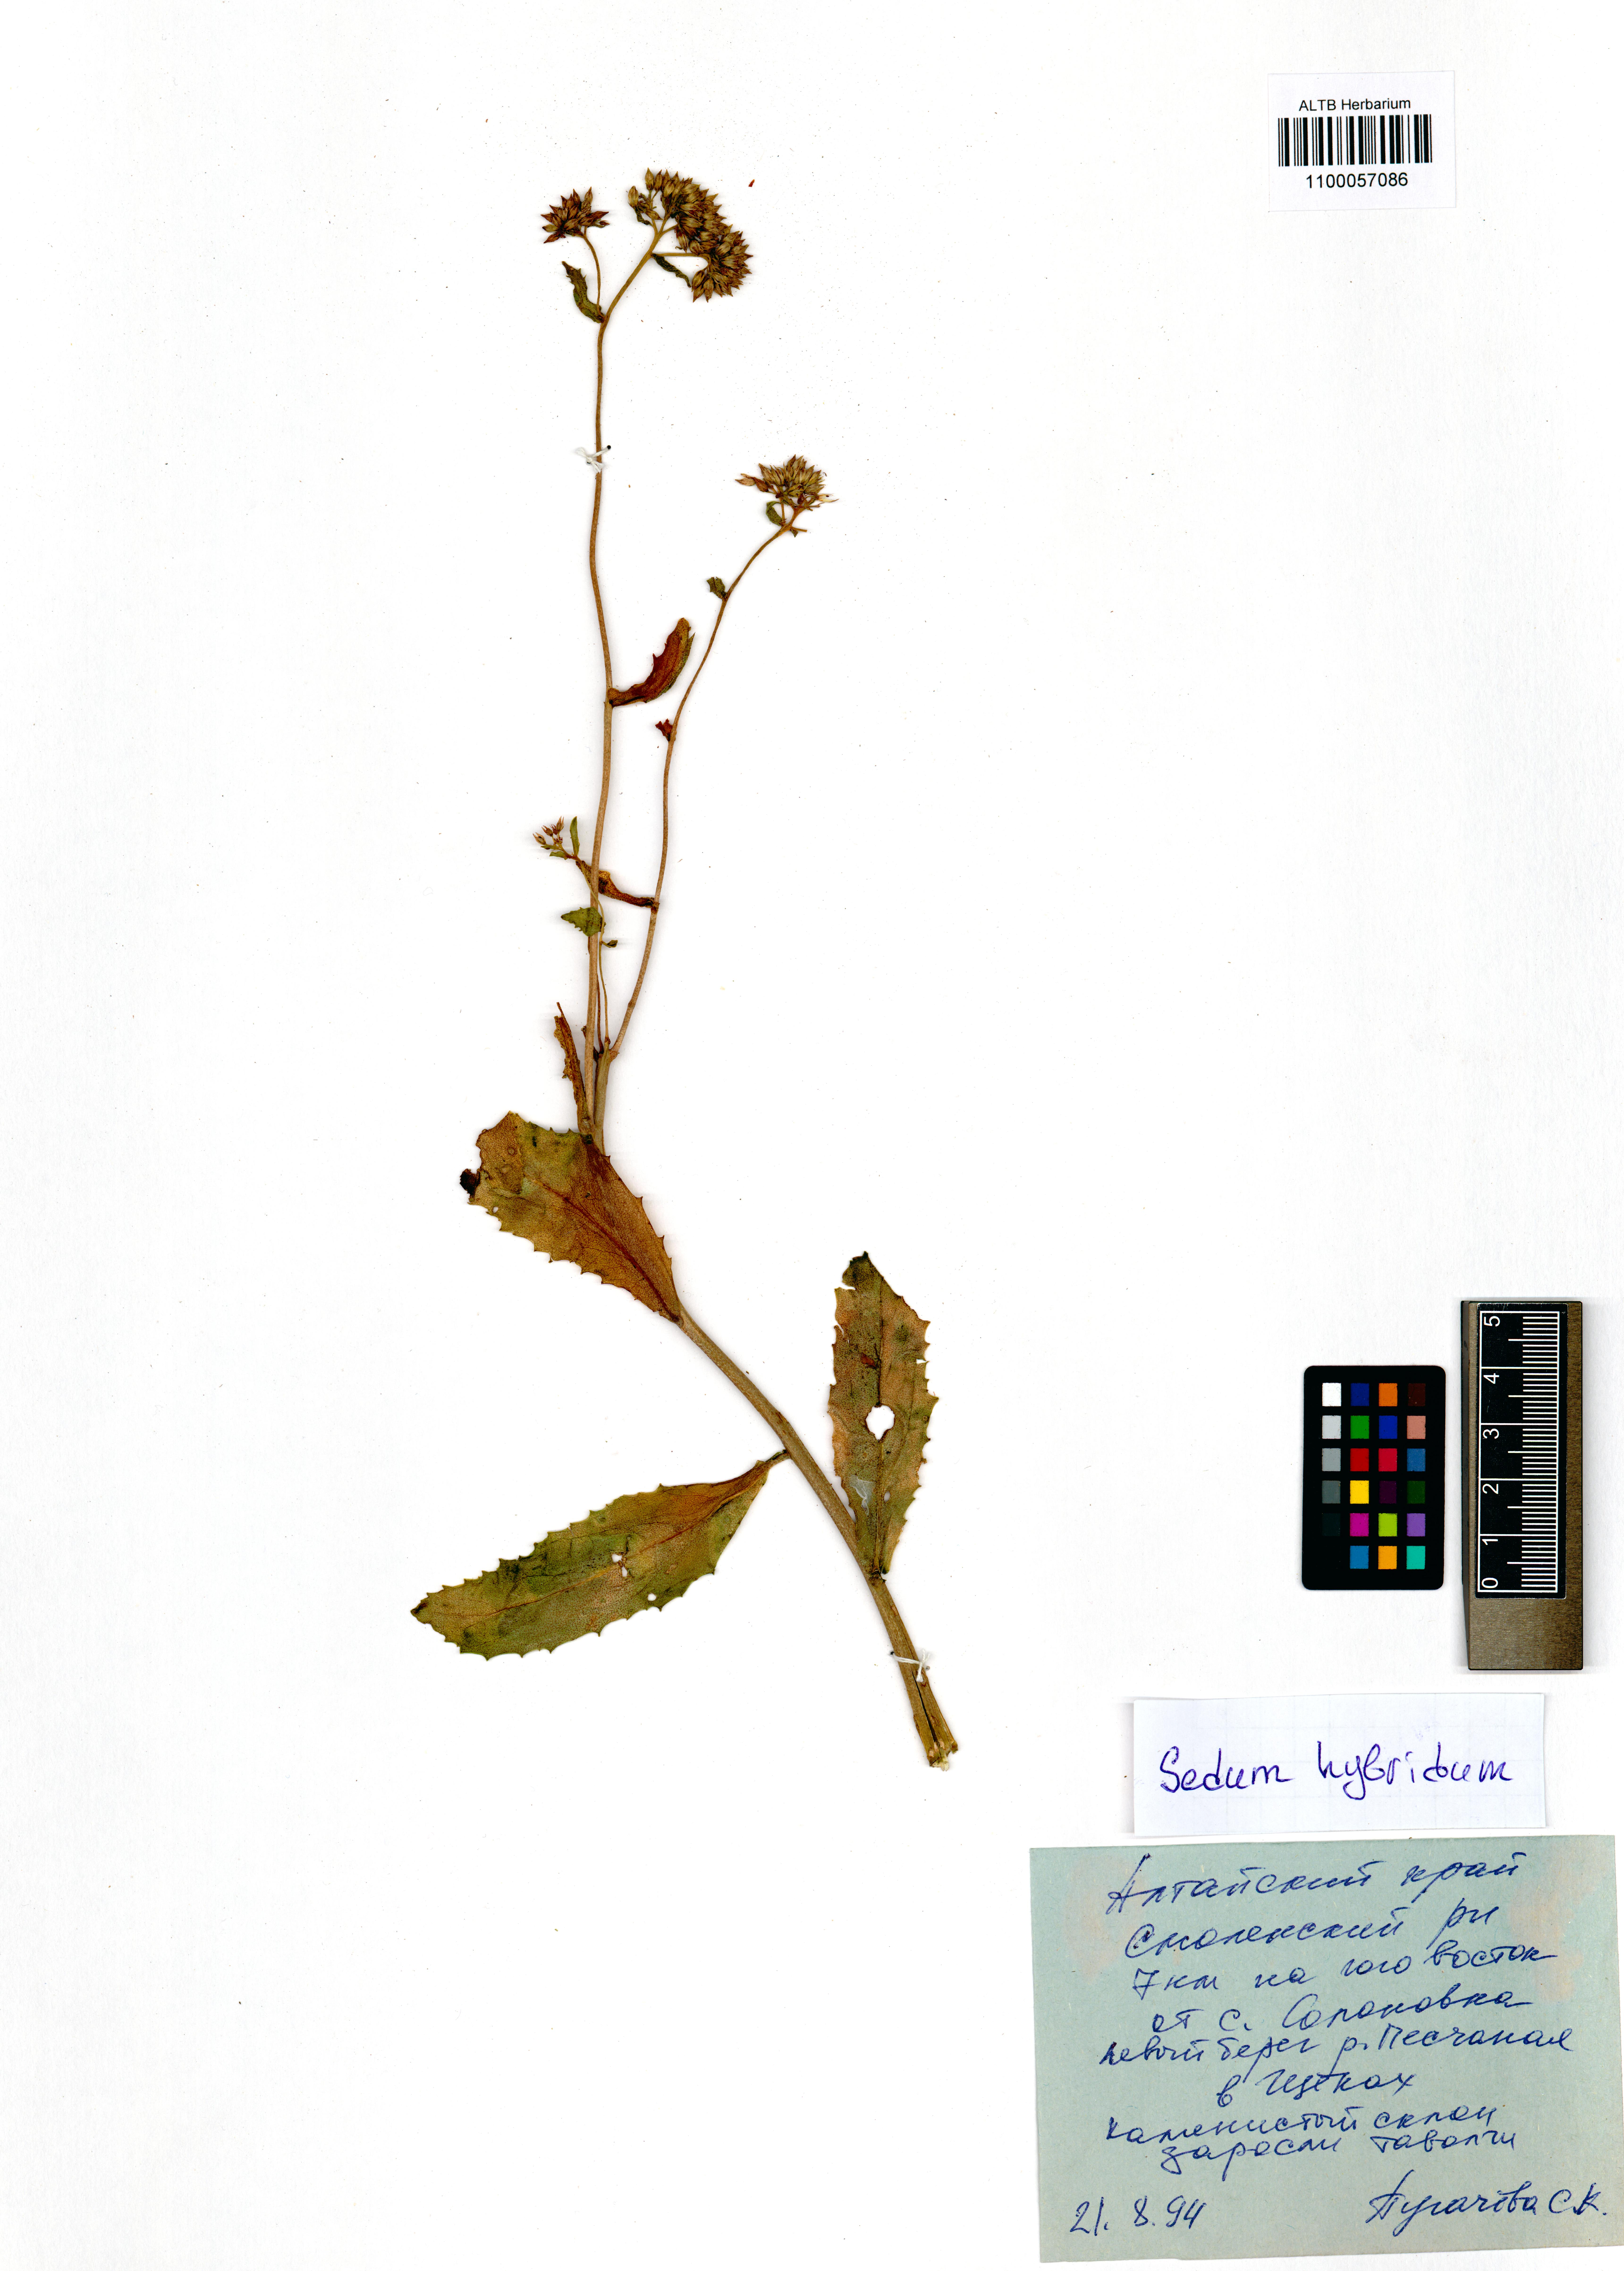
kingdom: Plantae
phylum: Tracheophyta
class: Magnoliopsida
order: Saxifragales
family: Crassulaceae
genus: Phedimus
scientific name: Phedimus hybridus
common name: Hybrid stonecrop
